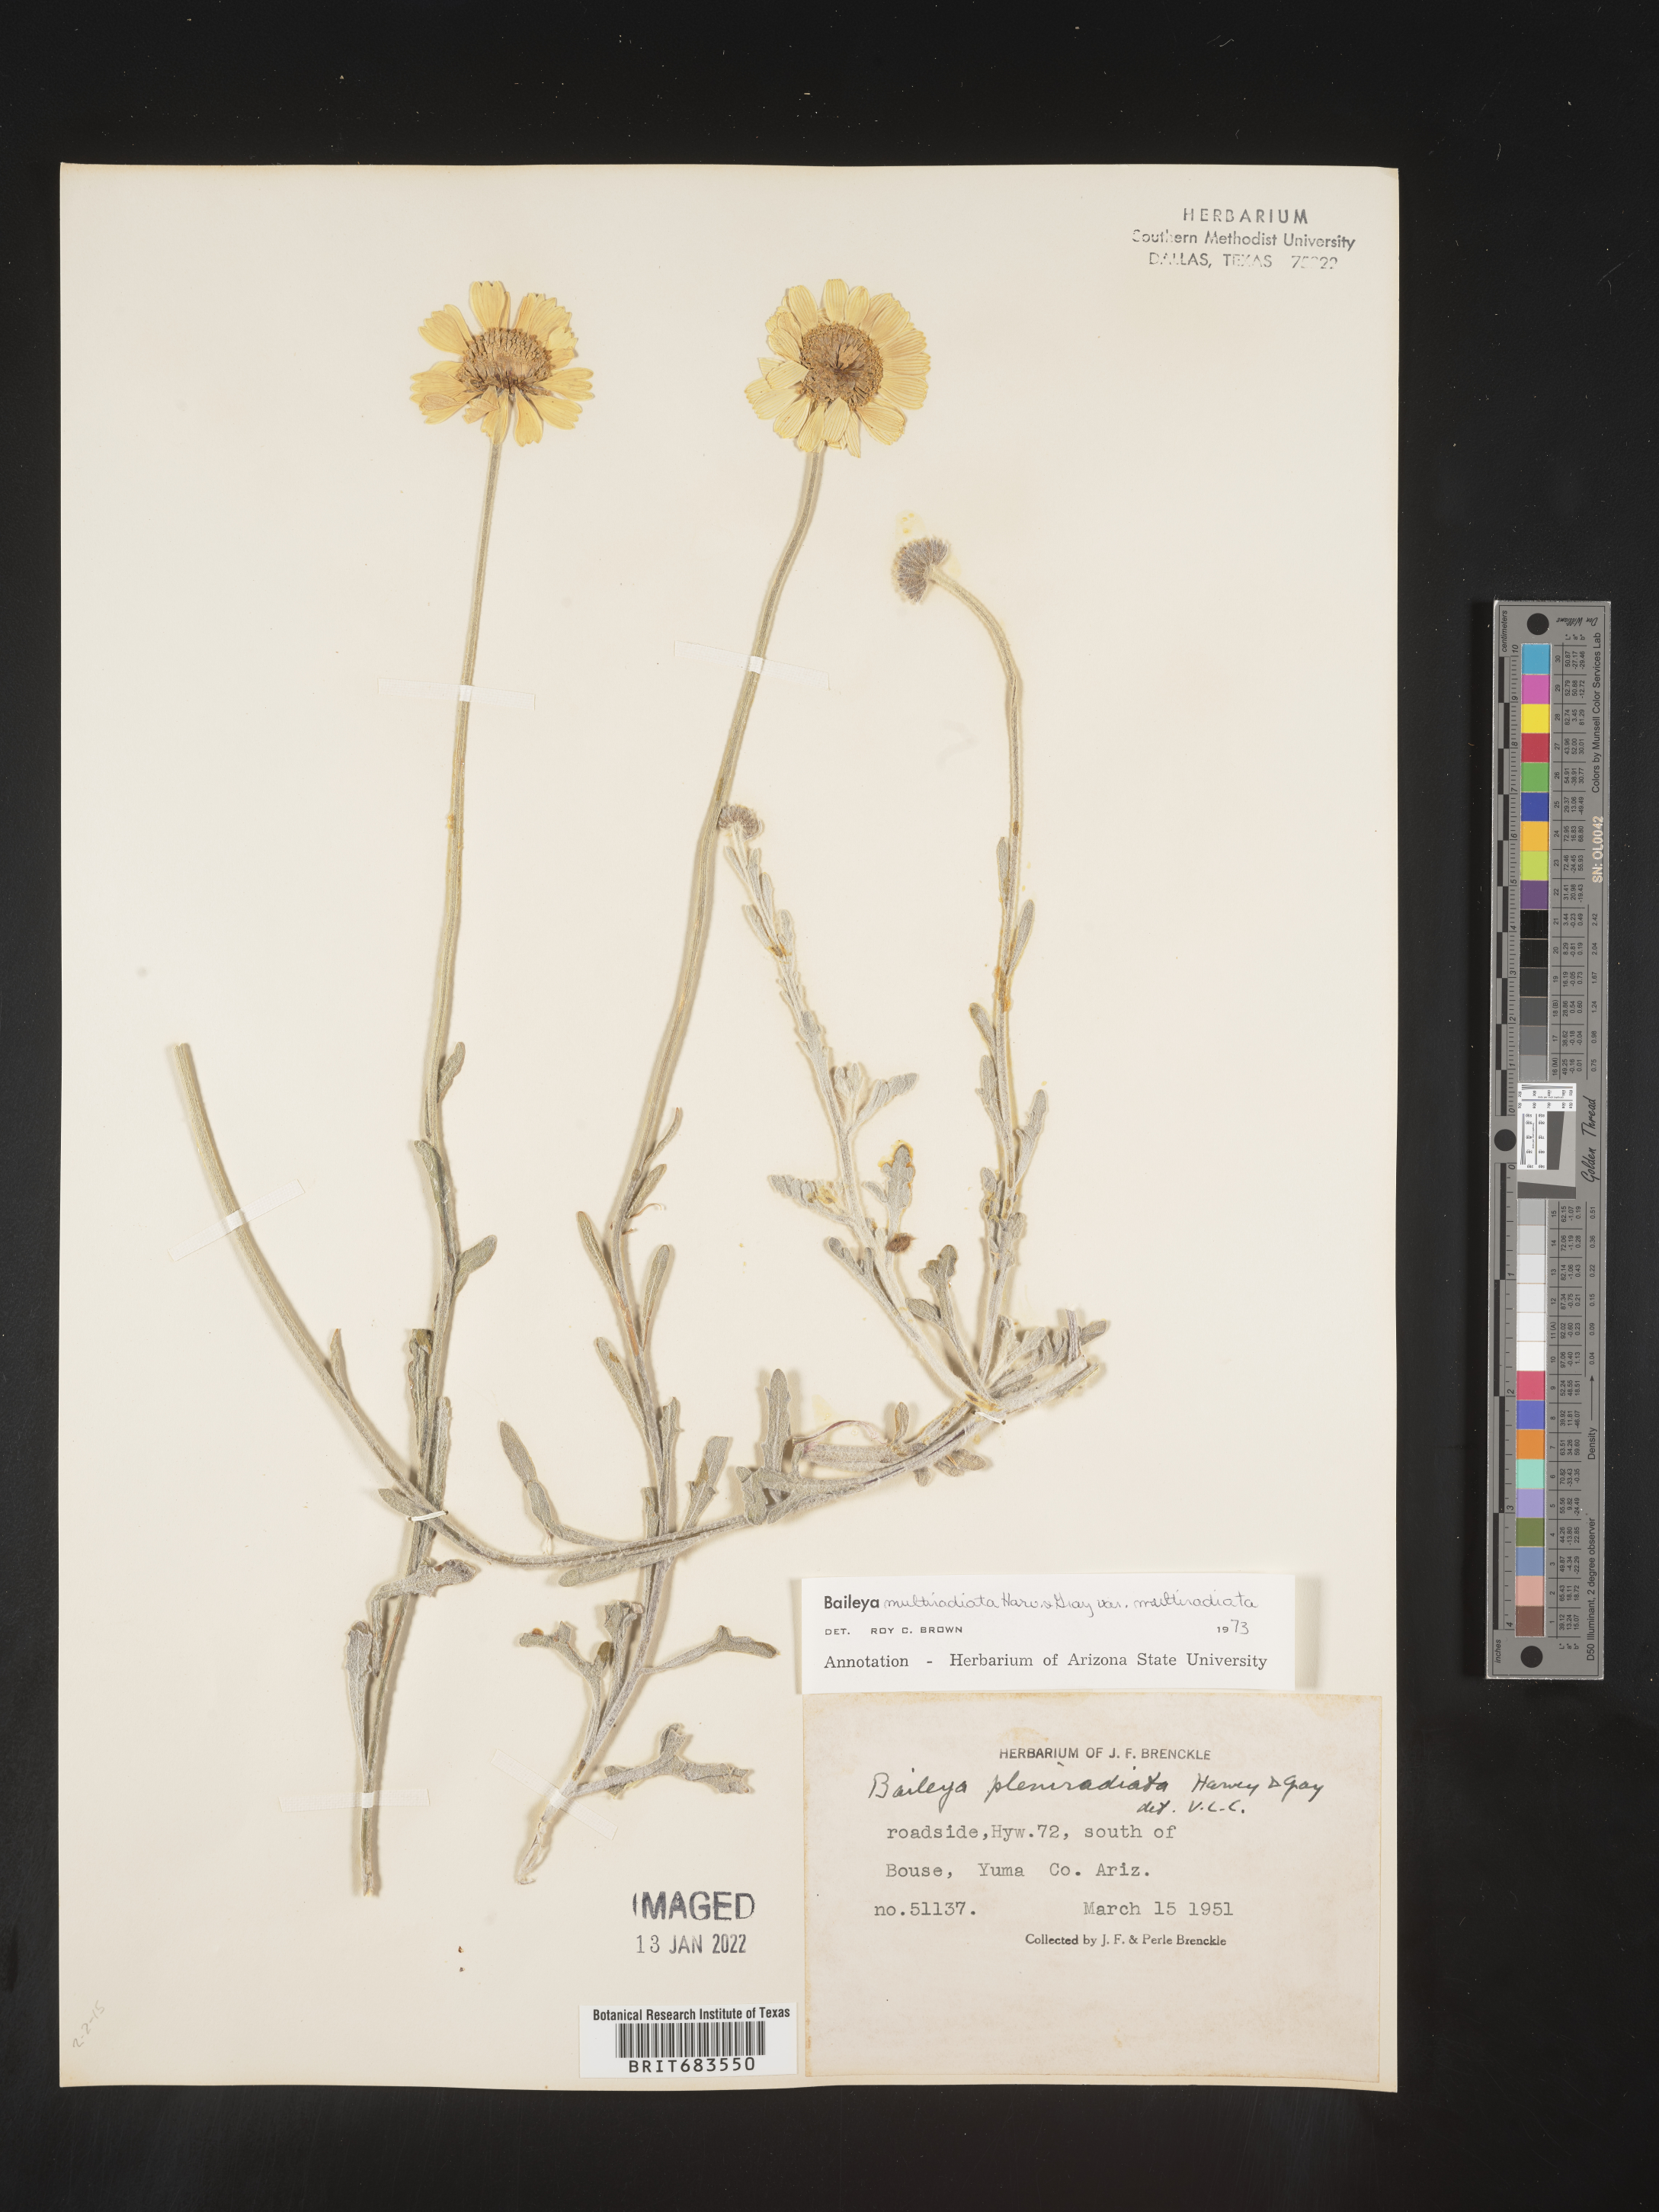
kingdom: Plantae
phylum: Tracheophyta
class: Magnoliopsida
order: Asterales
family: Asteraceae
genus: Baileya
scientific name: Baileya multiradiata
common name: Desert-marigold
